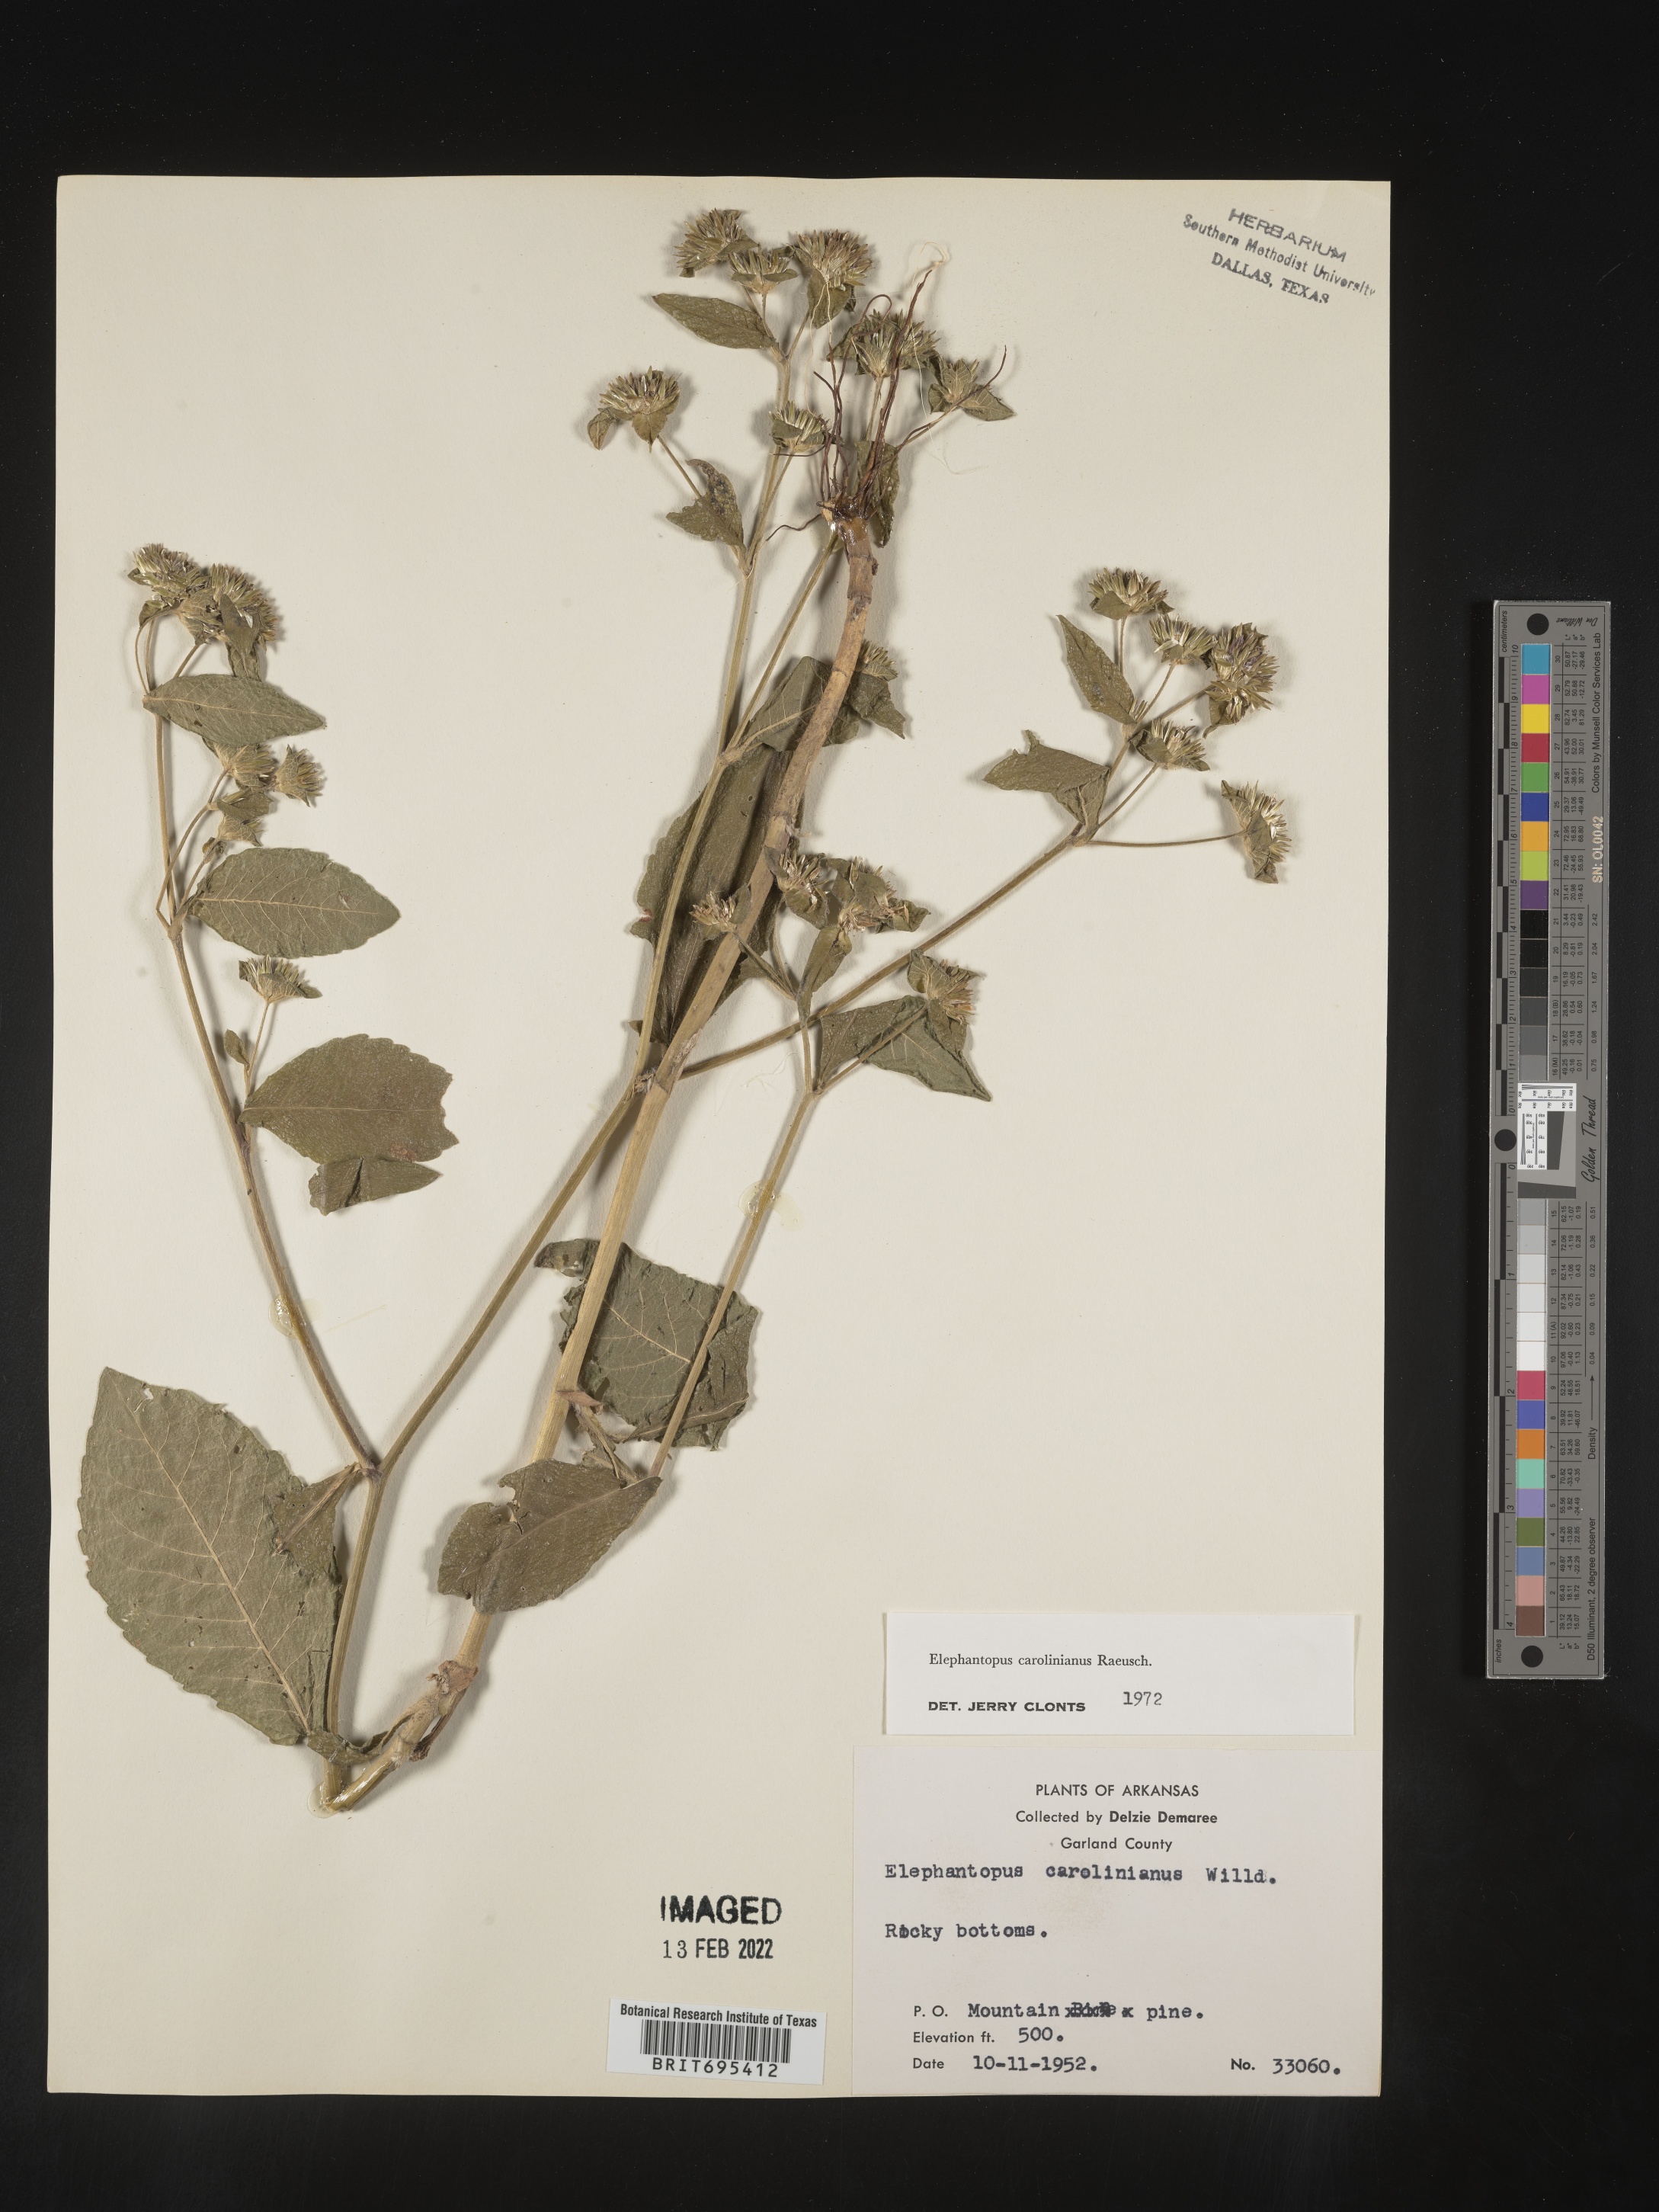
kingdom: Plantae
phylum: Tracheophyta
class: Magnoliopsida
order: Asterales
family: Asteraceae
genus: Elephantopus
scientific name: Elephantopus carolinianus
